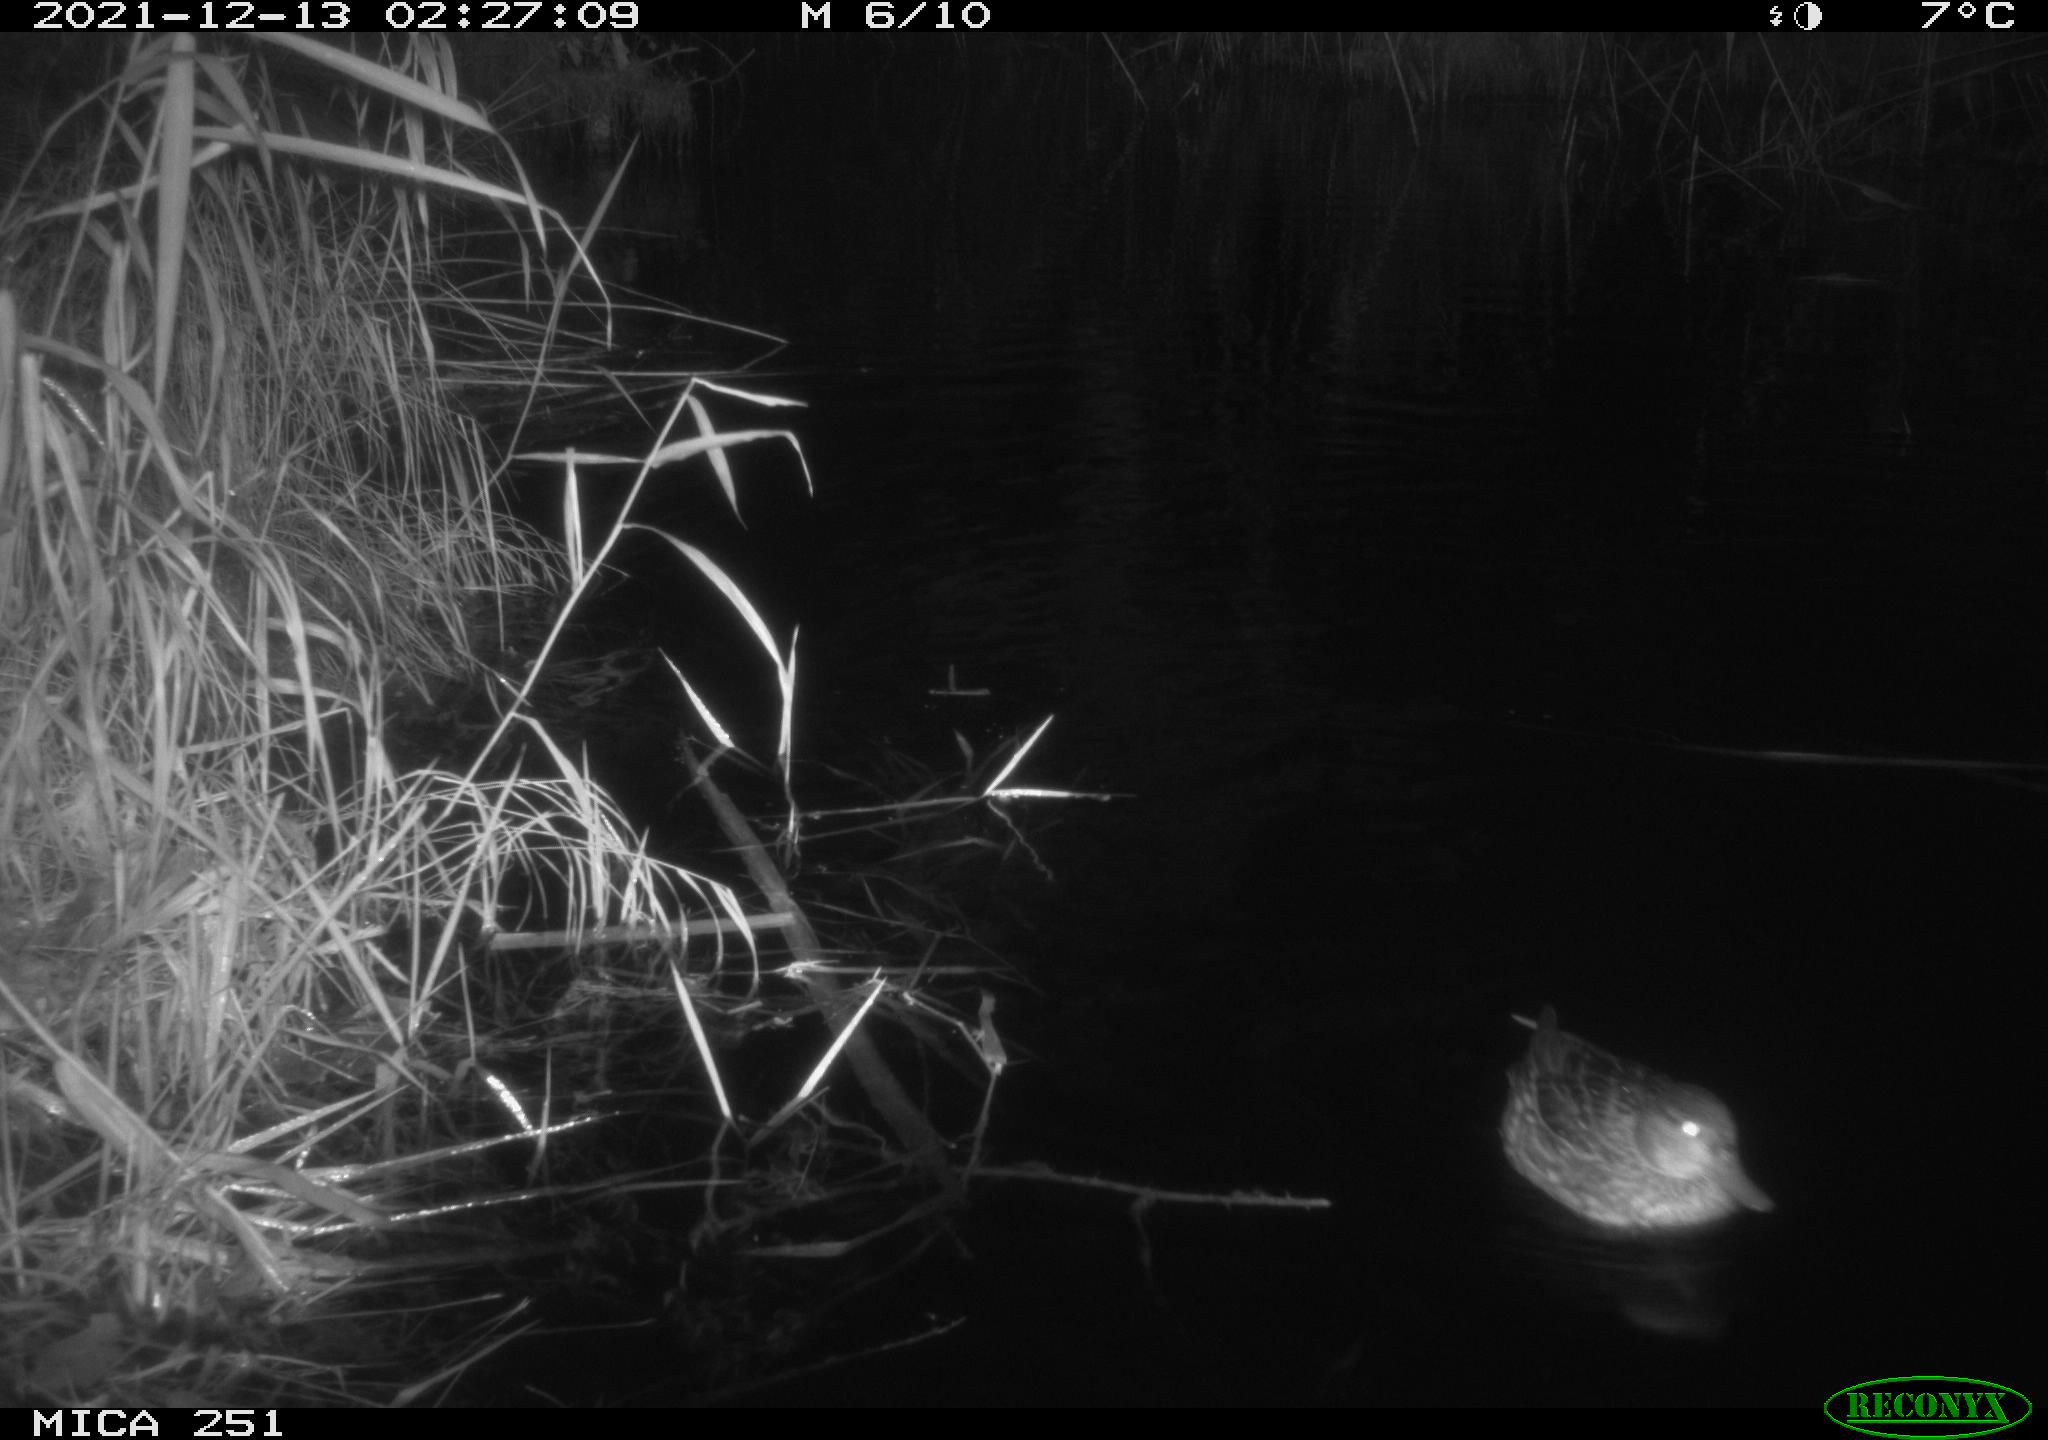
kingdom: Animalia
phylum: Chordata
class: Aves
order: Anseriformes
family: Anatidae
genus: Anas
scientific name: Anas platyrhynchos
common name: Mallard
